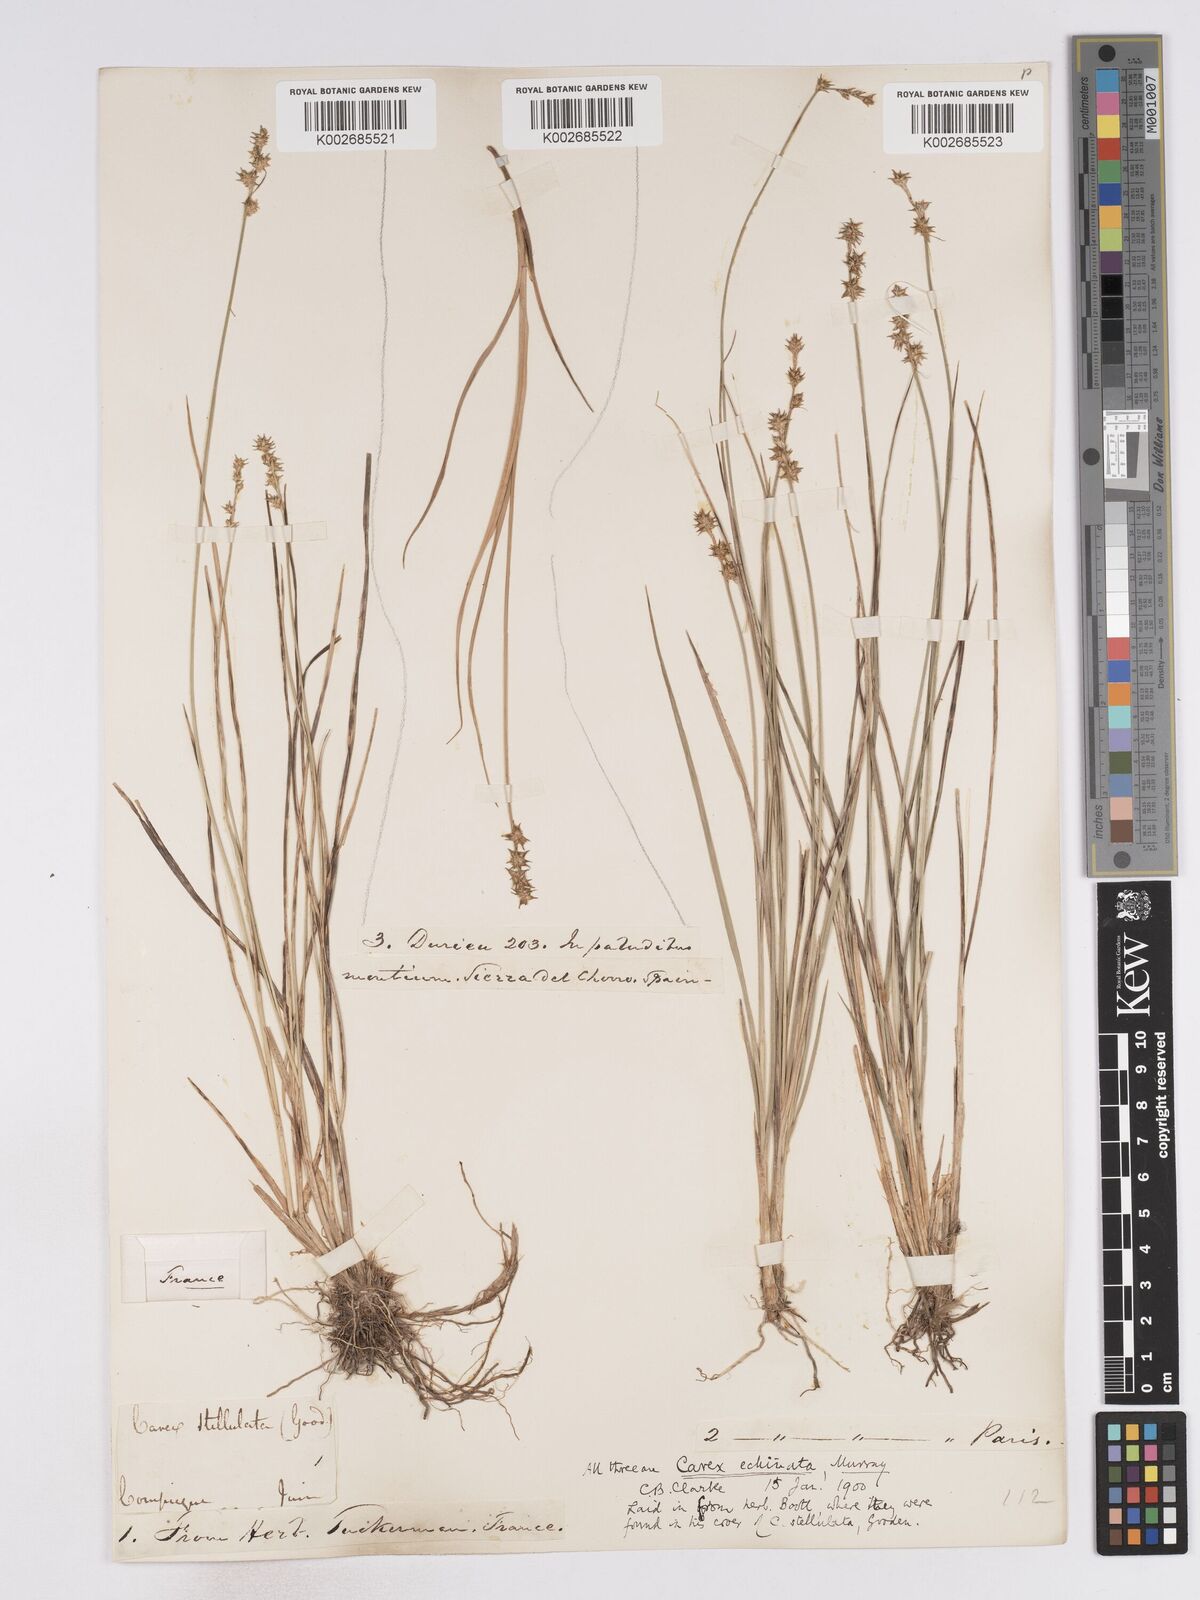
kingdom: Plantae
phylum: Tracheophyta
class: Liliopsida
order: Poales
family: Cyperaceae
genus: Carex
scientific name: Carex echinata
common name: Star sedge
